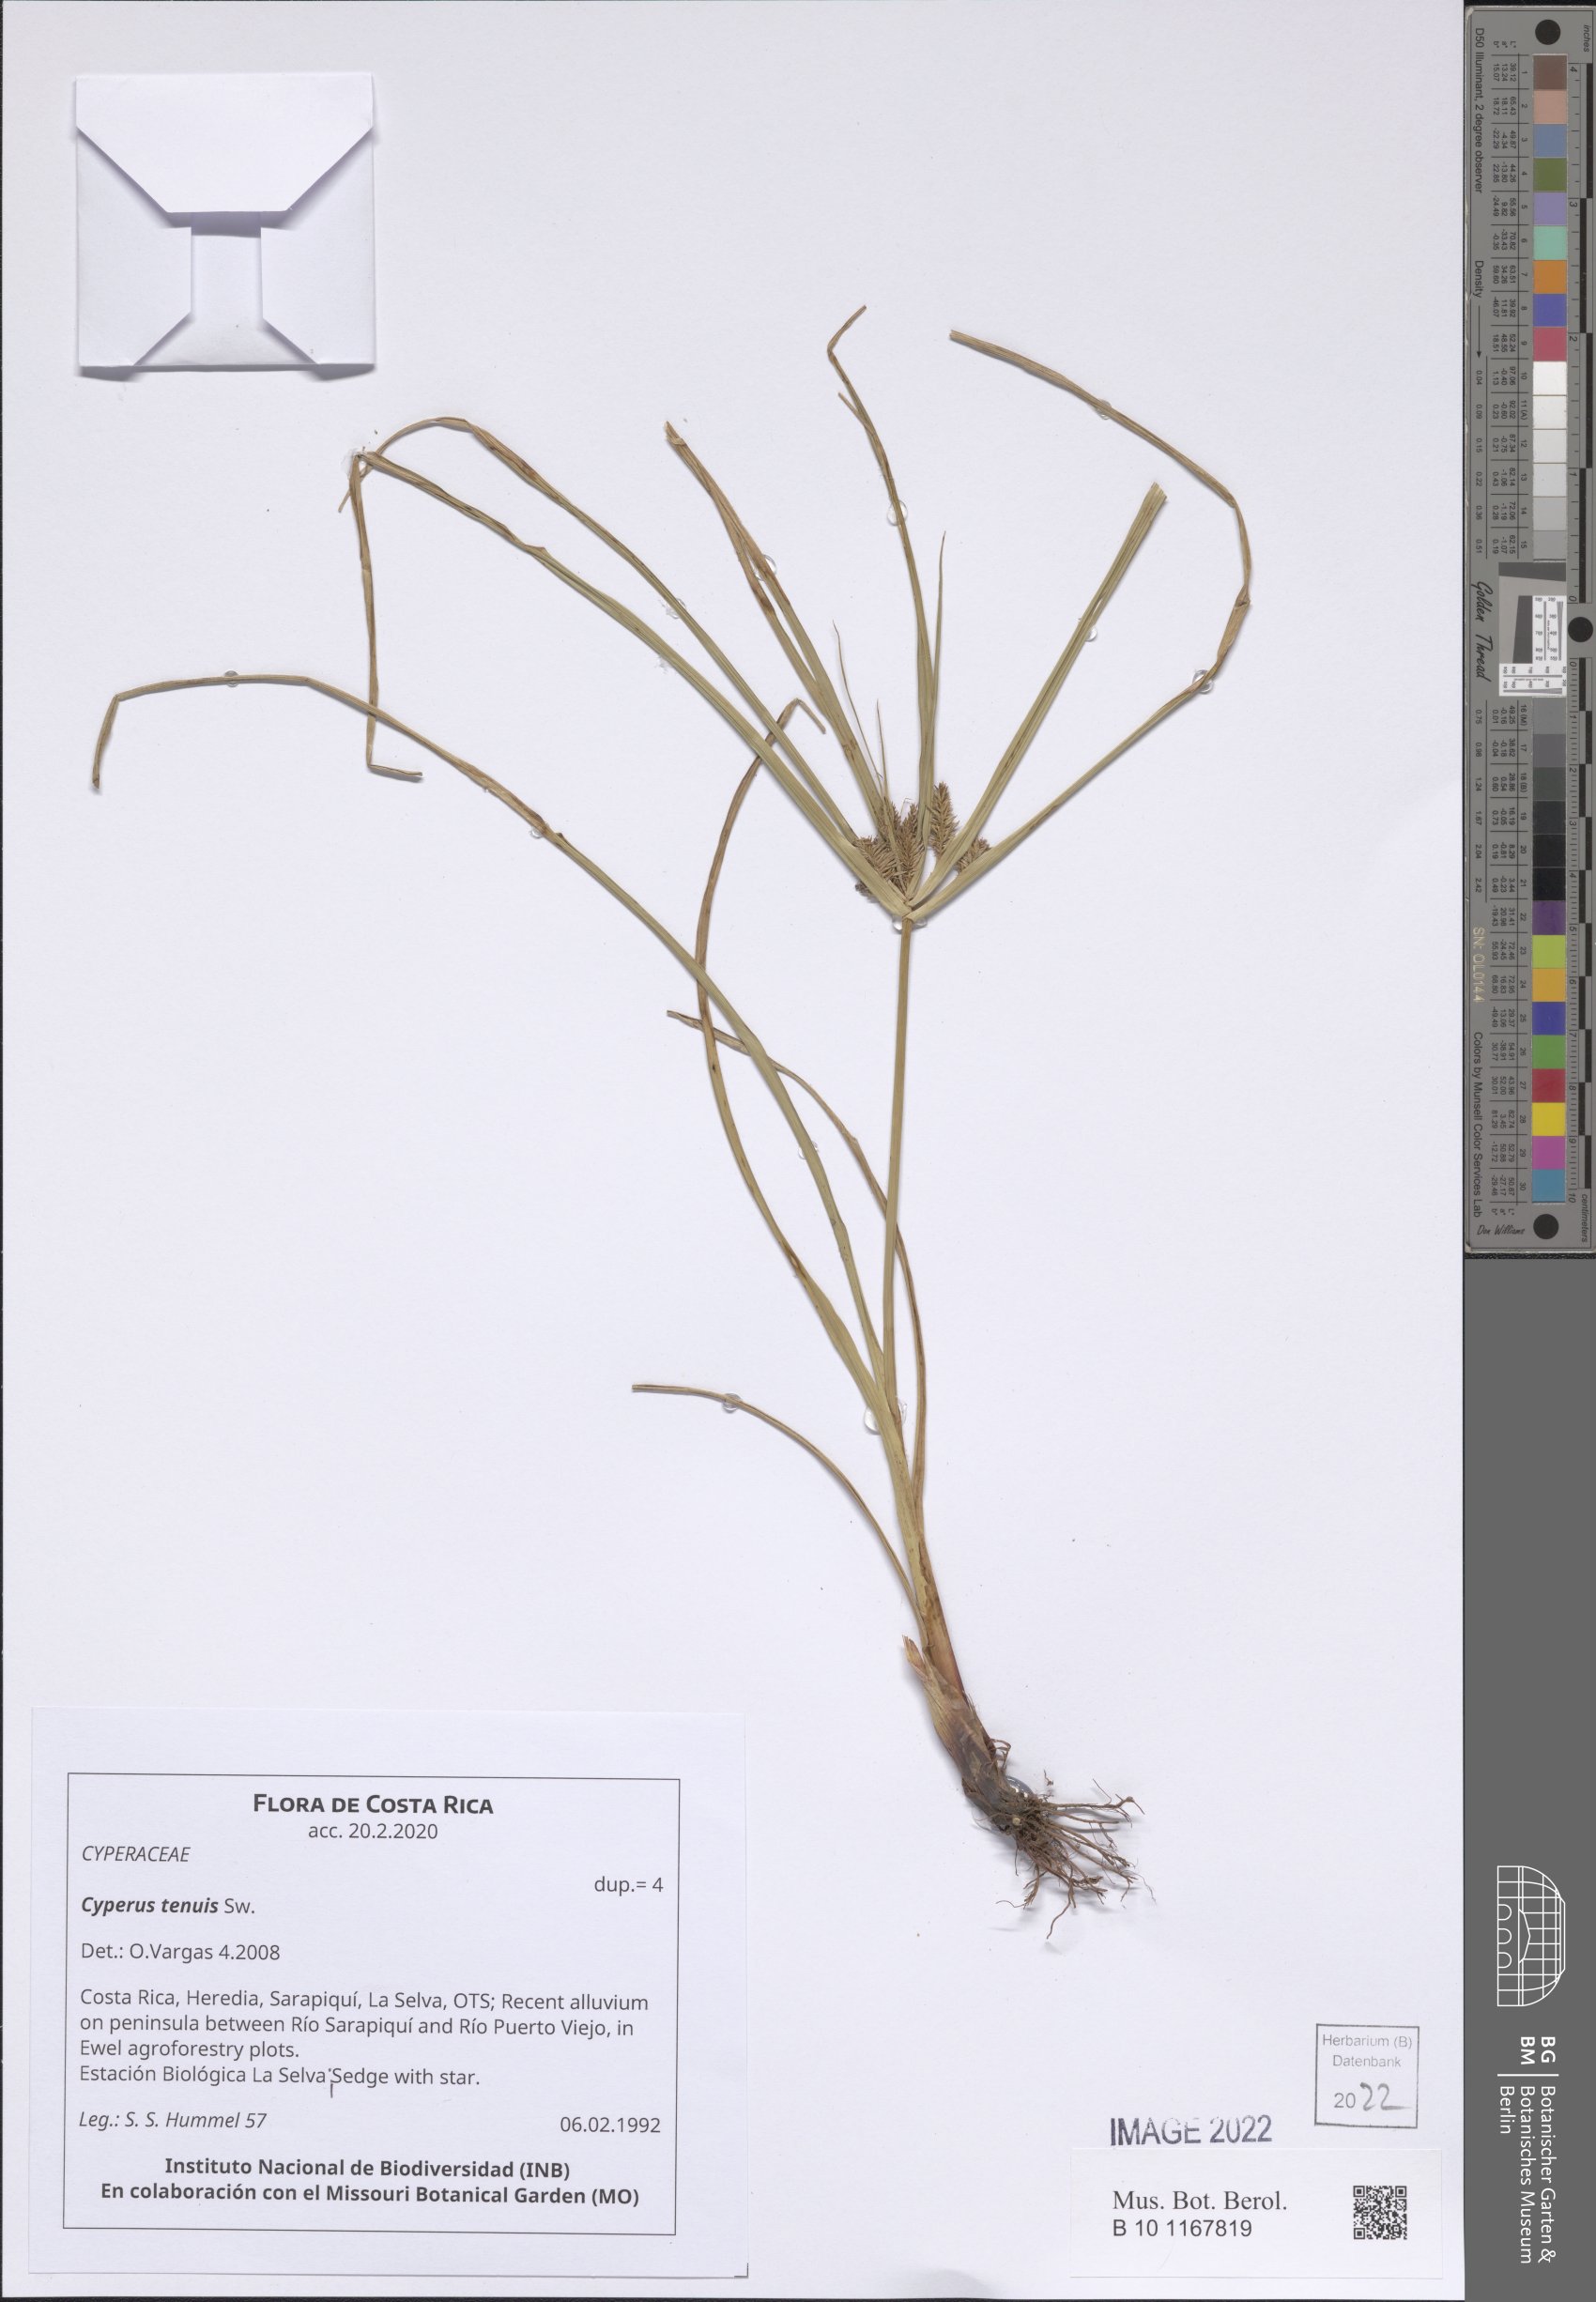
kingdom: Plantae
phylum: Tracheophyta
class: Liliopsida
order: Poales
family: Cyperaceae
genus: Cyperus
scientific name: Cyperus tenuis
